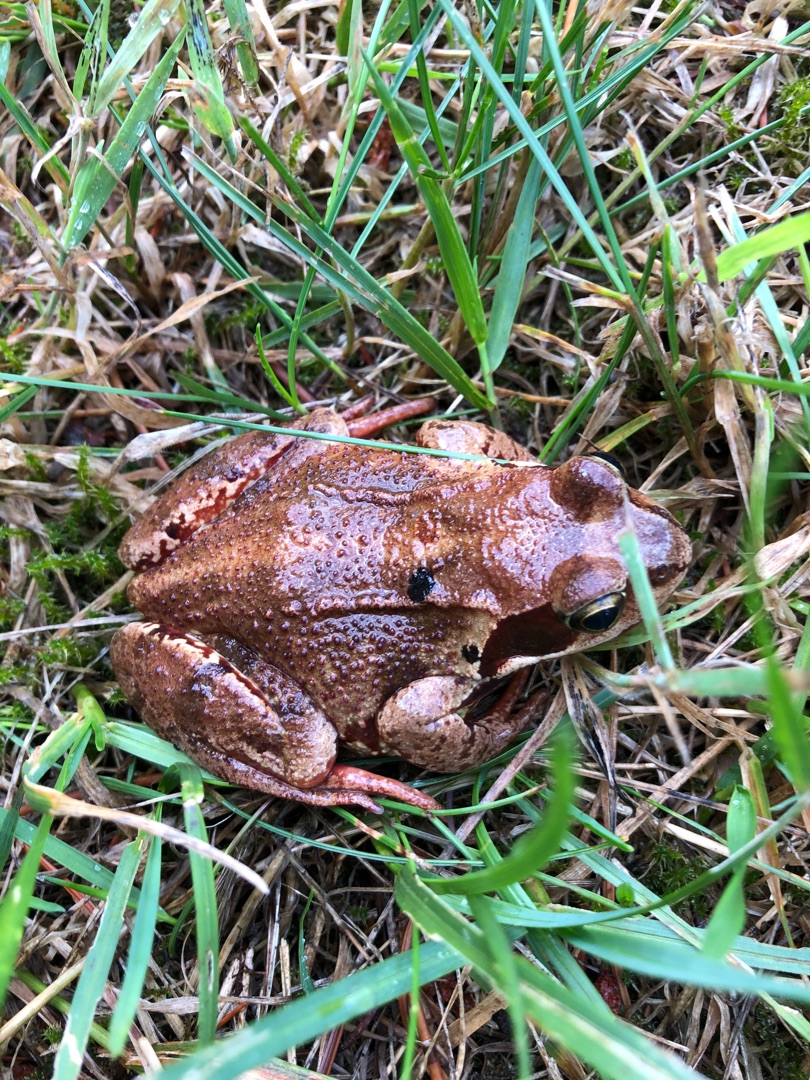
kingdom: Animalia
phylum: Chordata
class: Amphibia
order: Anura
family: Ranidae
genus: Rana
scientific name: Rana temporaria
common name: Butsnudet frø
